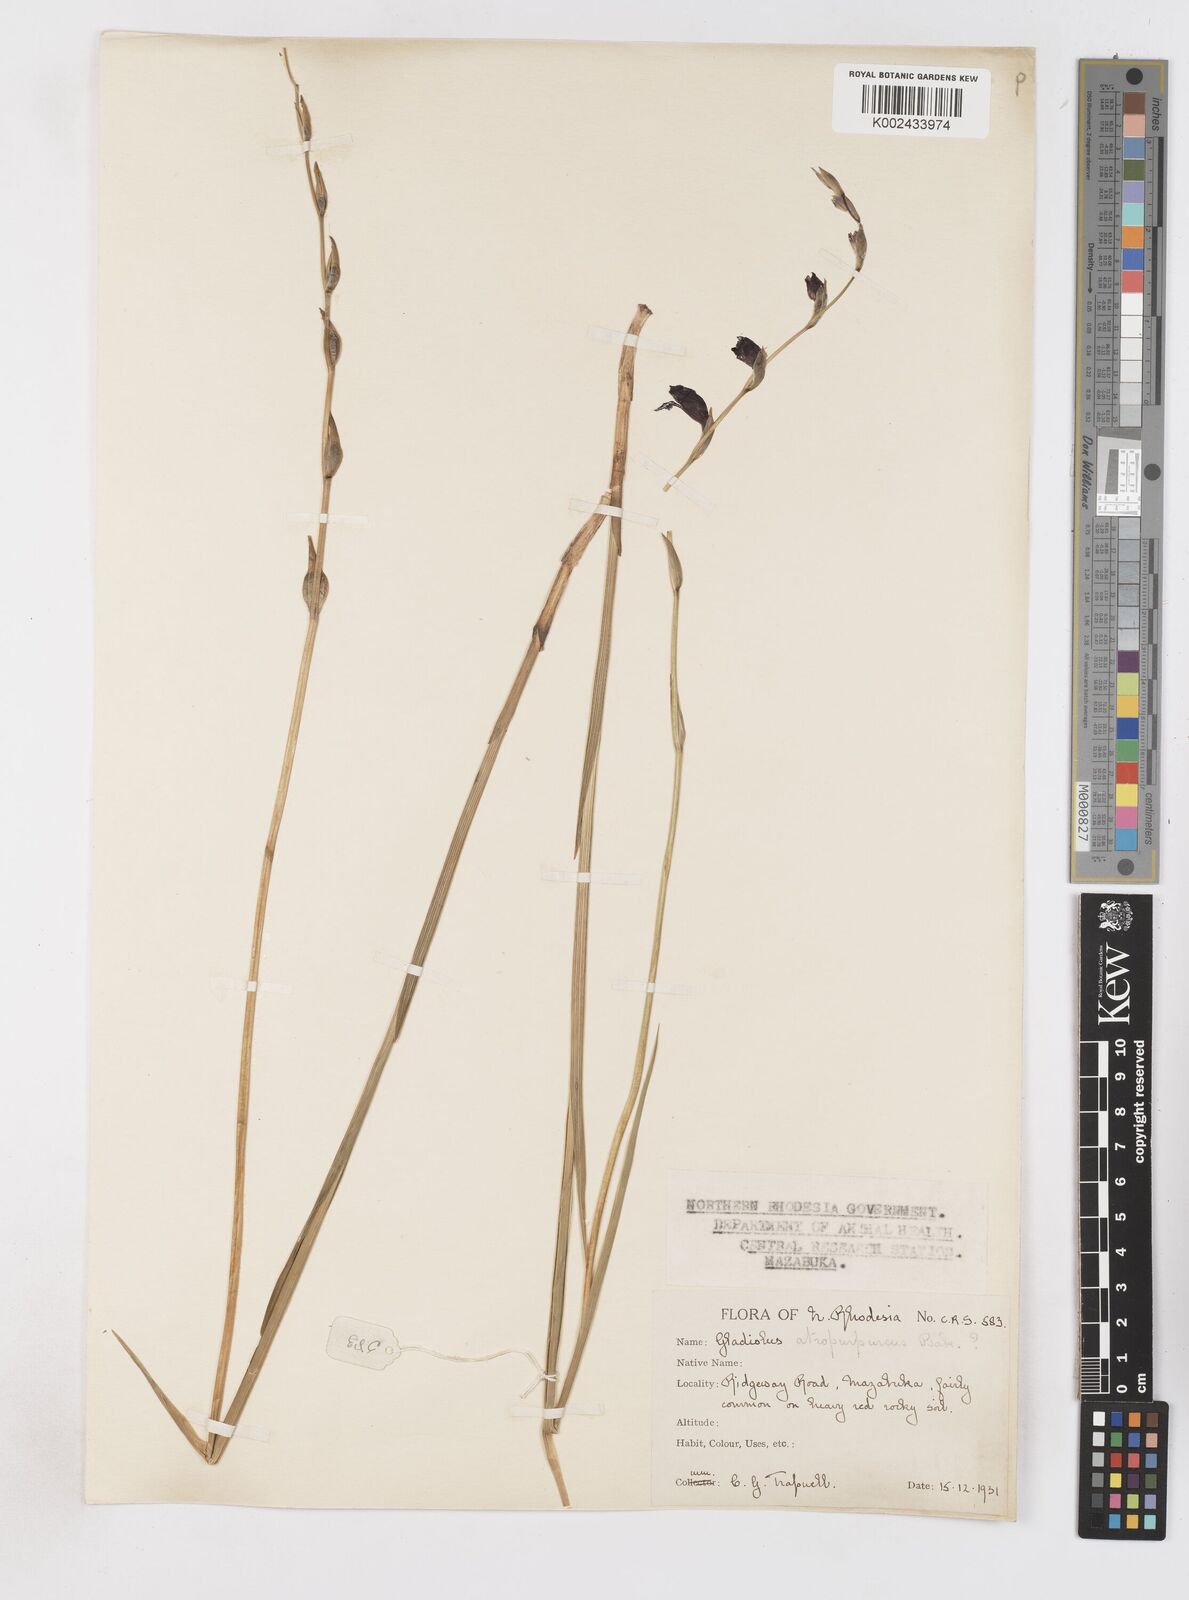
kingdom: Plantae
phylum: Tracheophyta
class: Liliopsida
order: Asparagales
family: Iridaceae
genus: Gladiolus
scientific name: Gladiolus atropurpureus
